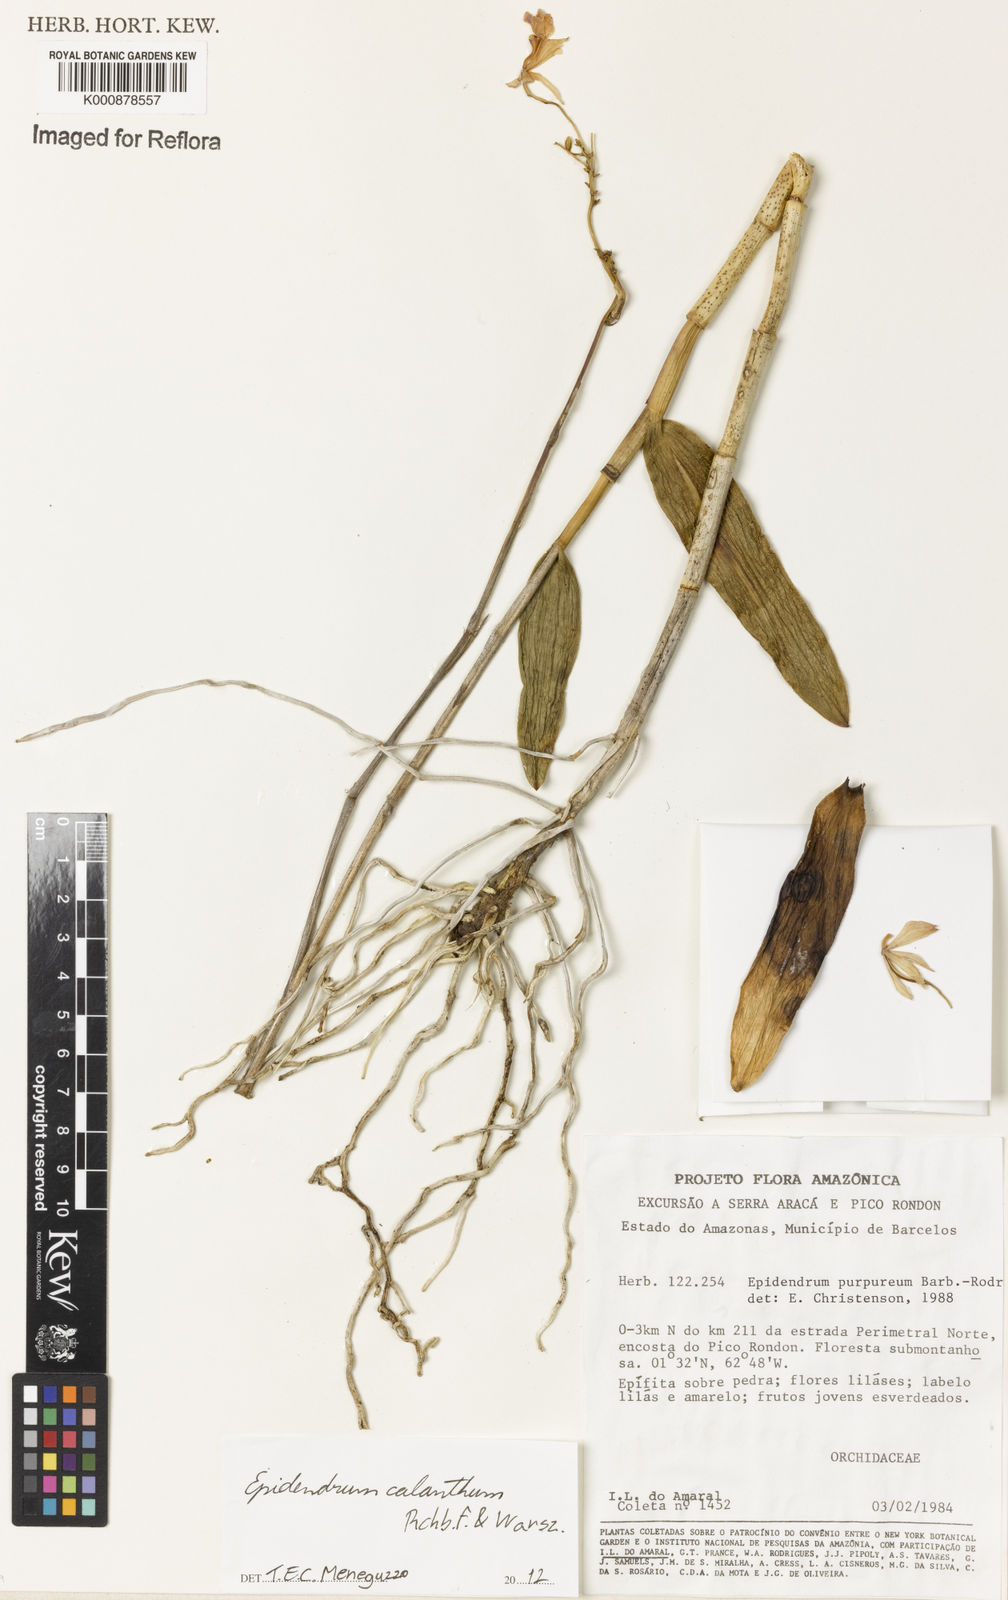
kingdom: Plantae
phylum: Tracheophyta
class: Liliopsida
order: Asparagales
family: Orchidaceae
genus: Epidendrum
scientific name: Epidendrum calanthum
